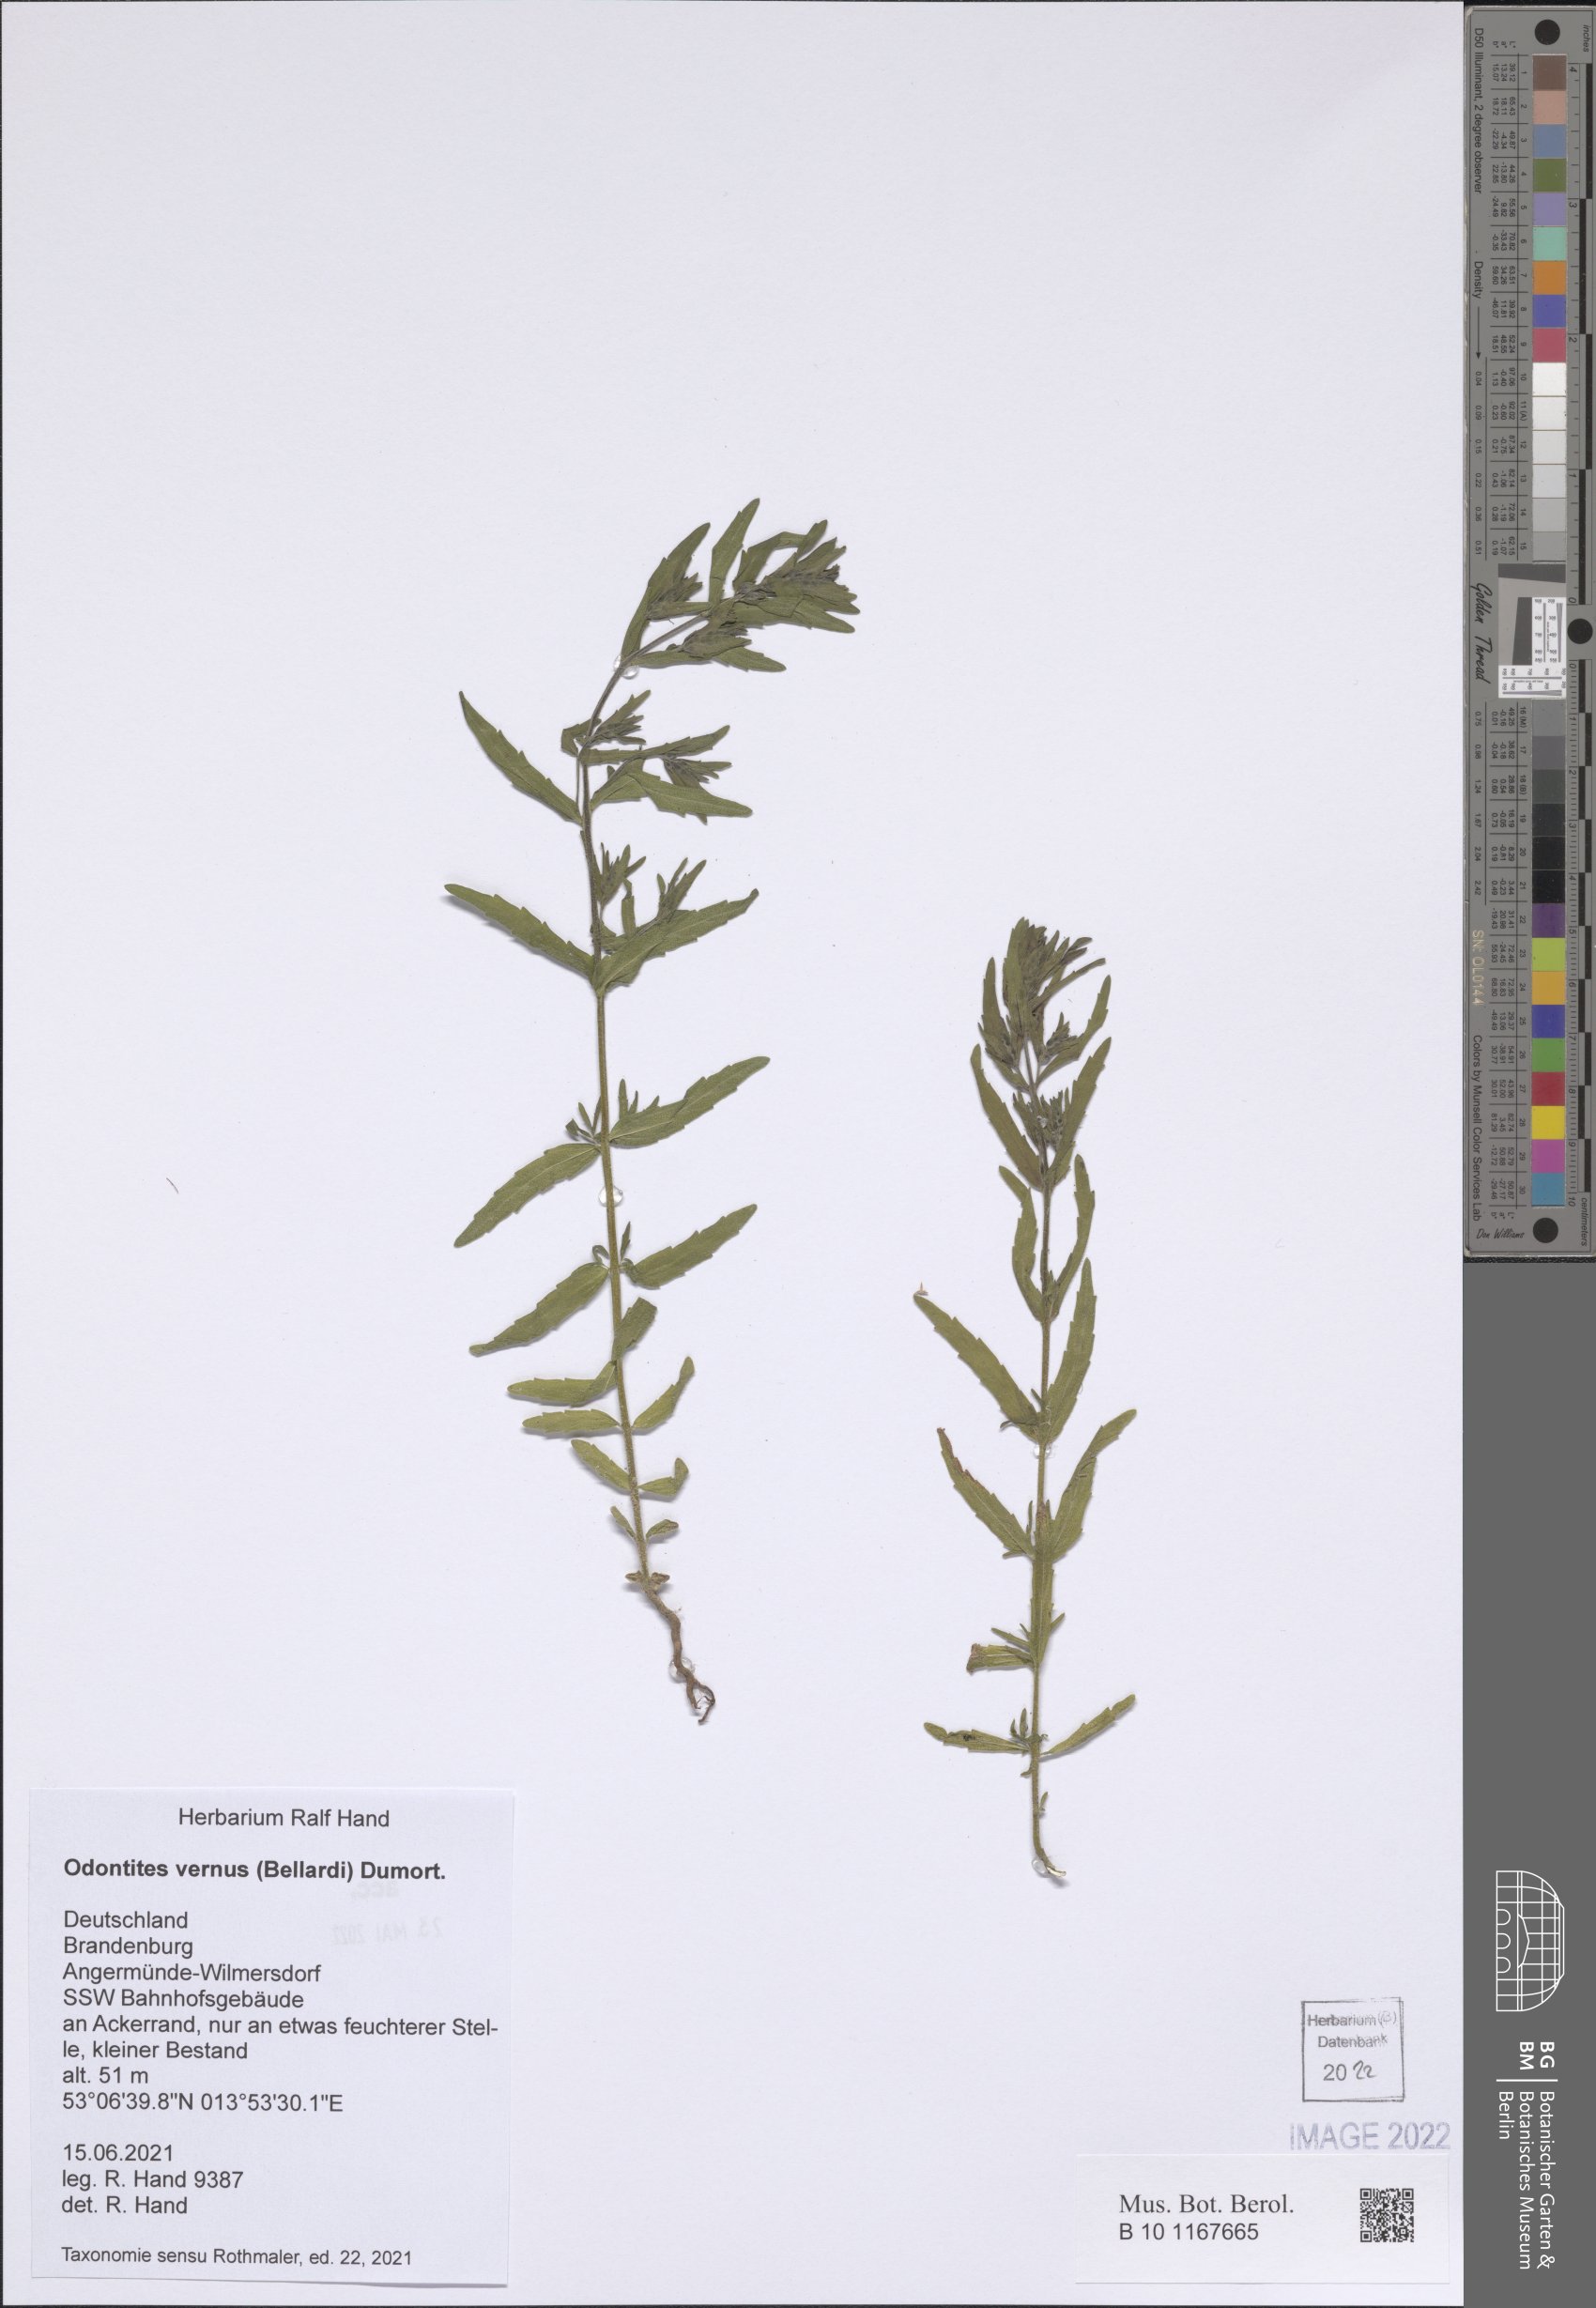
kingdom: Plantae
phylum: Tracheophyta
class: Magnoliopsida
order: Lamiales
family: Orobanchaceae
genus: Odontites
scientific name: Odontites vernus
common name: Red bartsia
